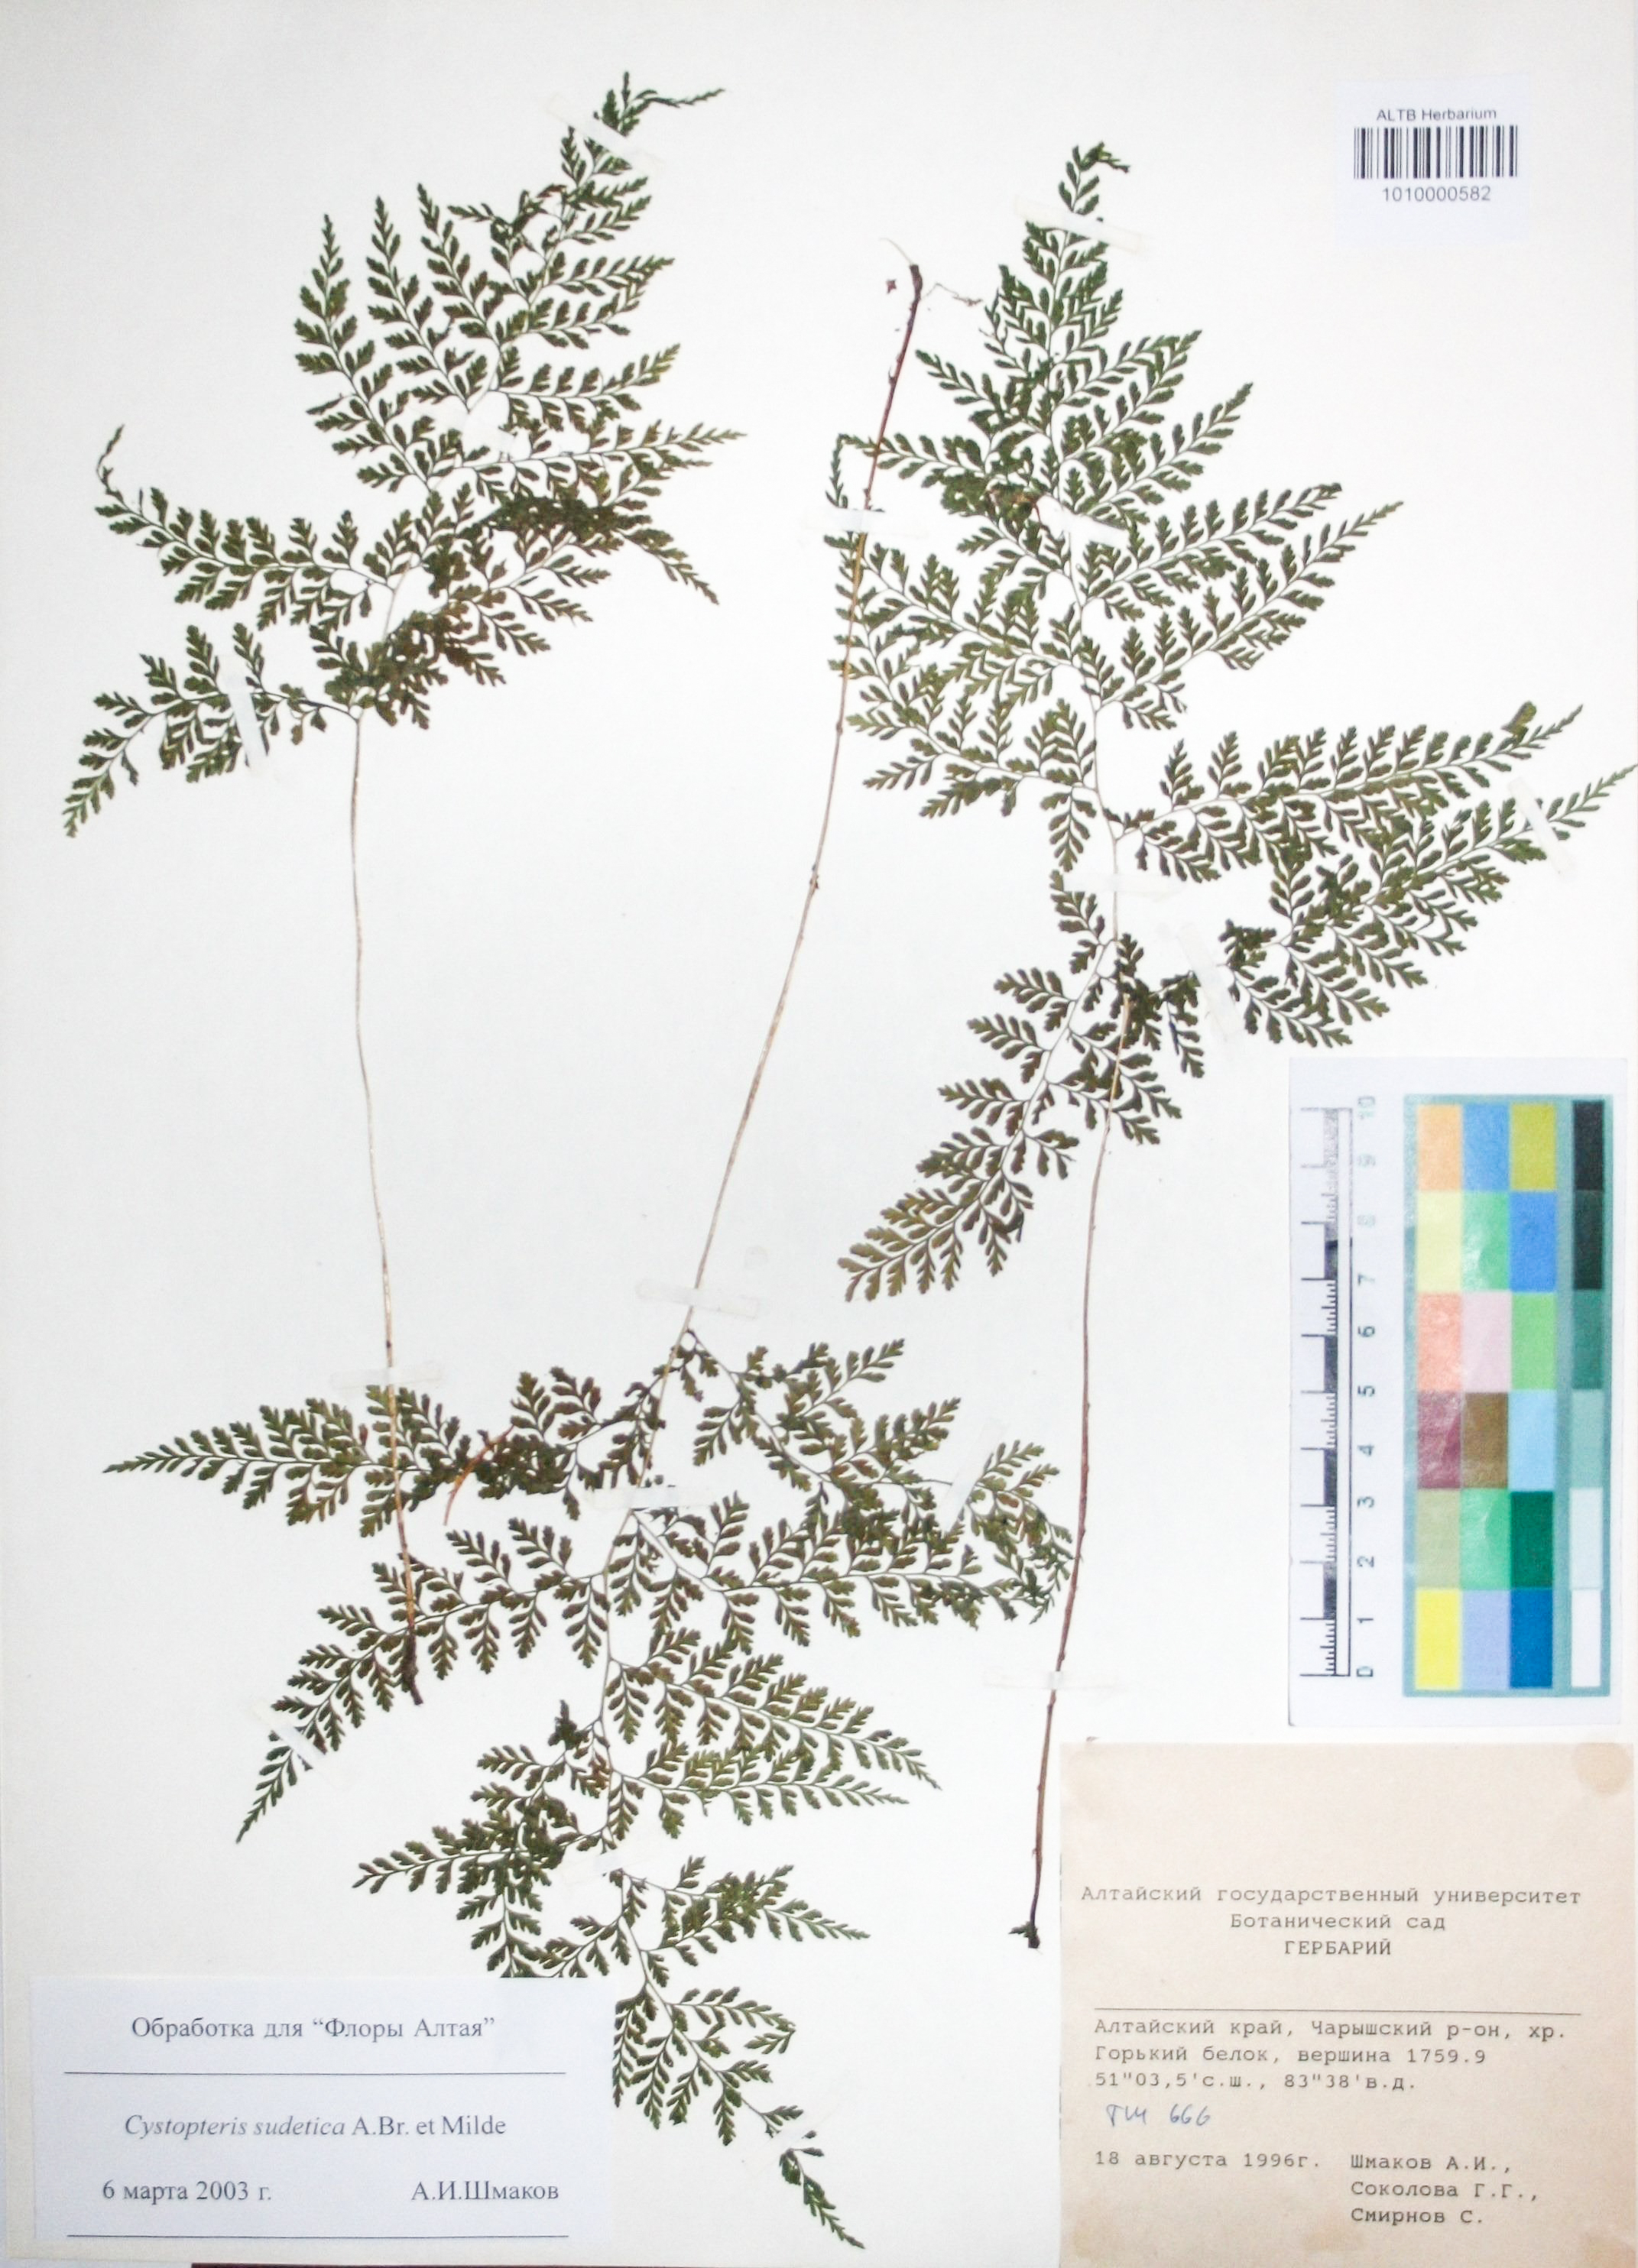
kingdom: Plantae
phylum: Tracheophyta
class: Polypodiopsida
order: Polypodiales
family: Cystopteridaceae
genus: Cystopteris
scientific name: Cystopteris sudetica
